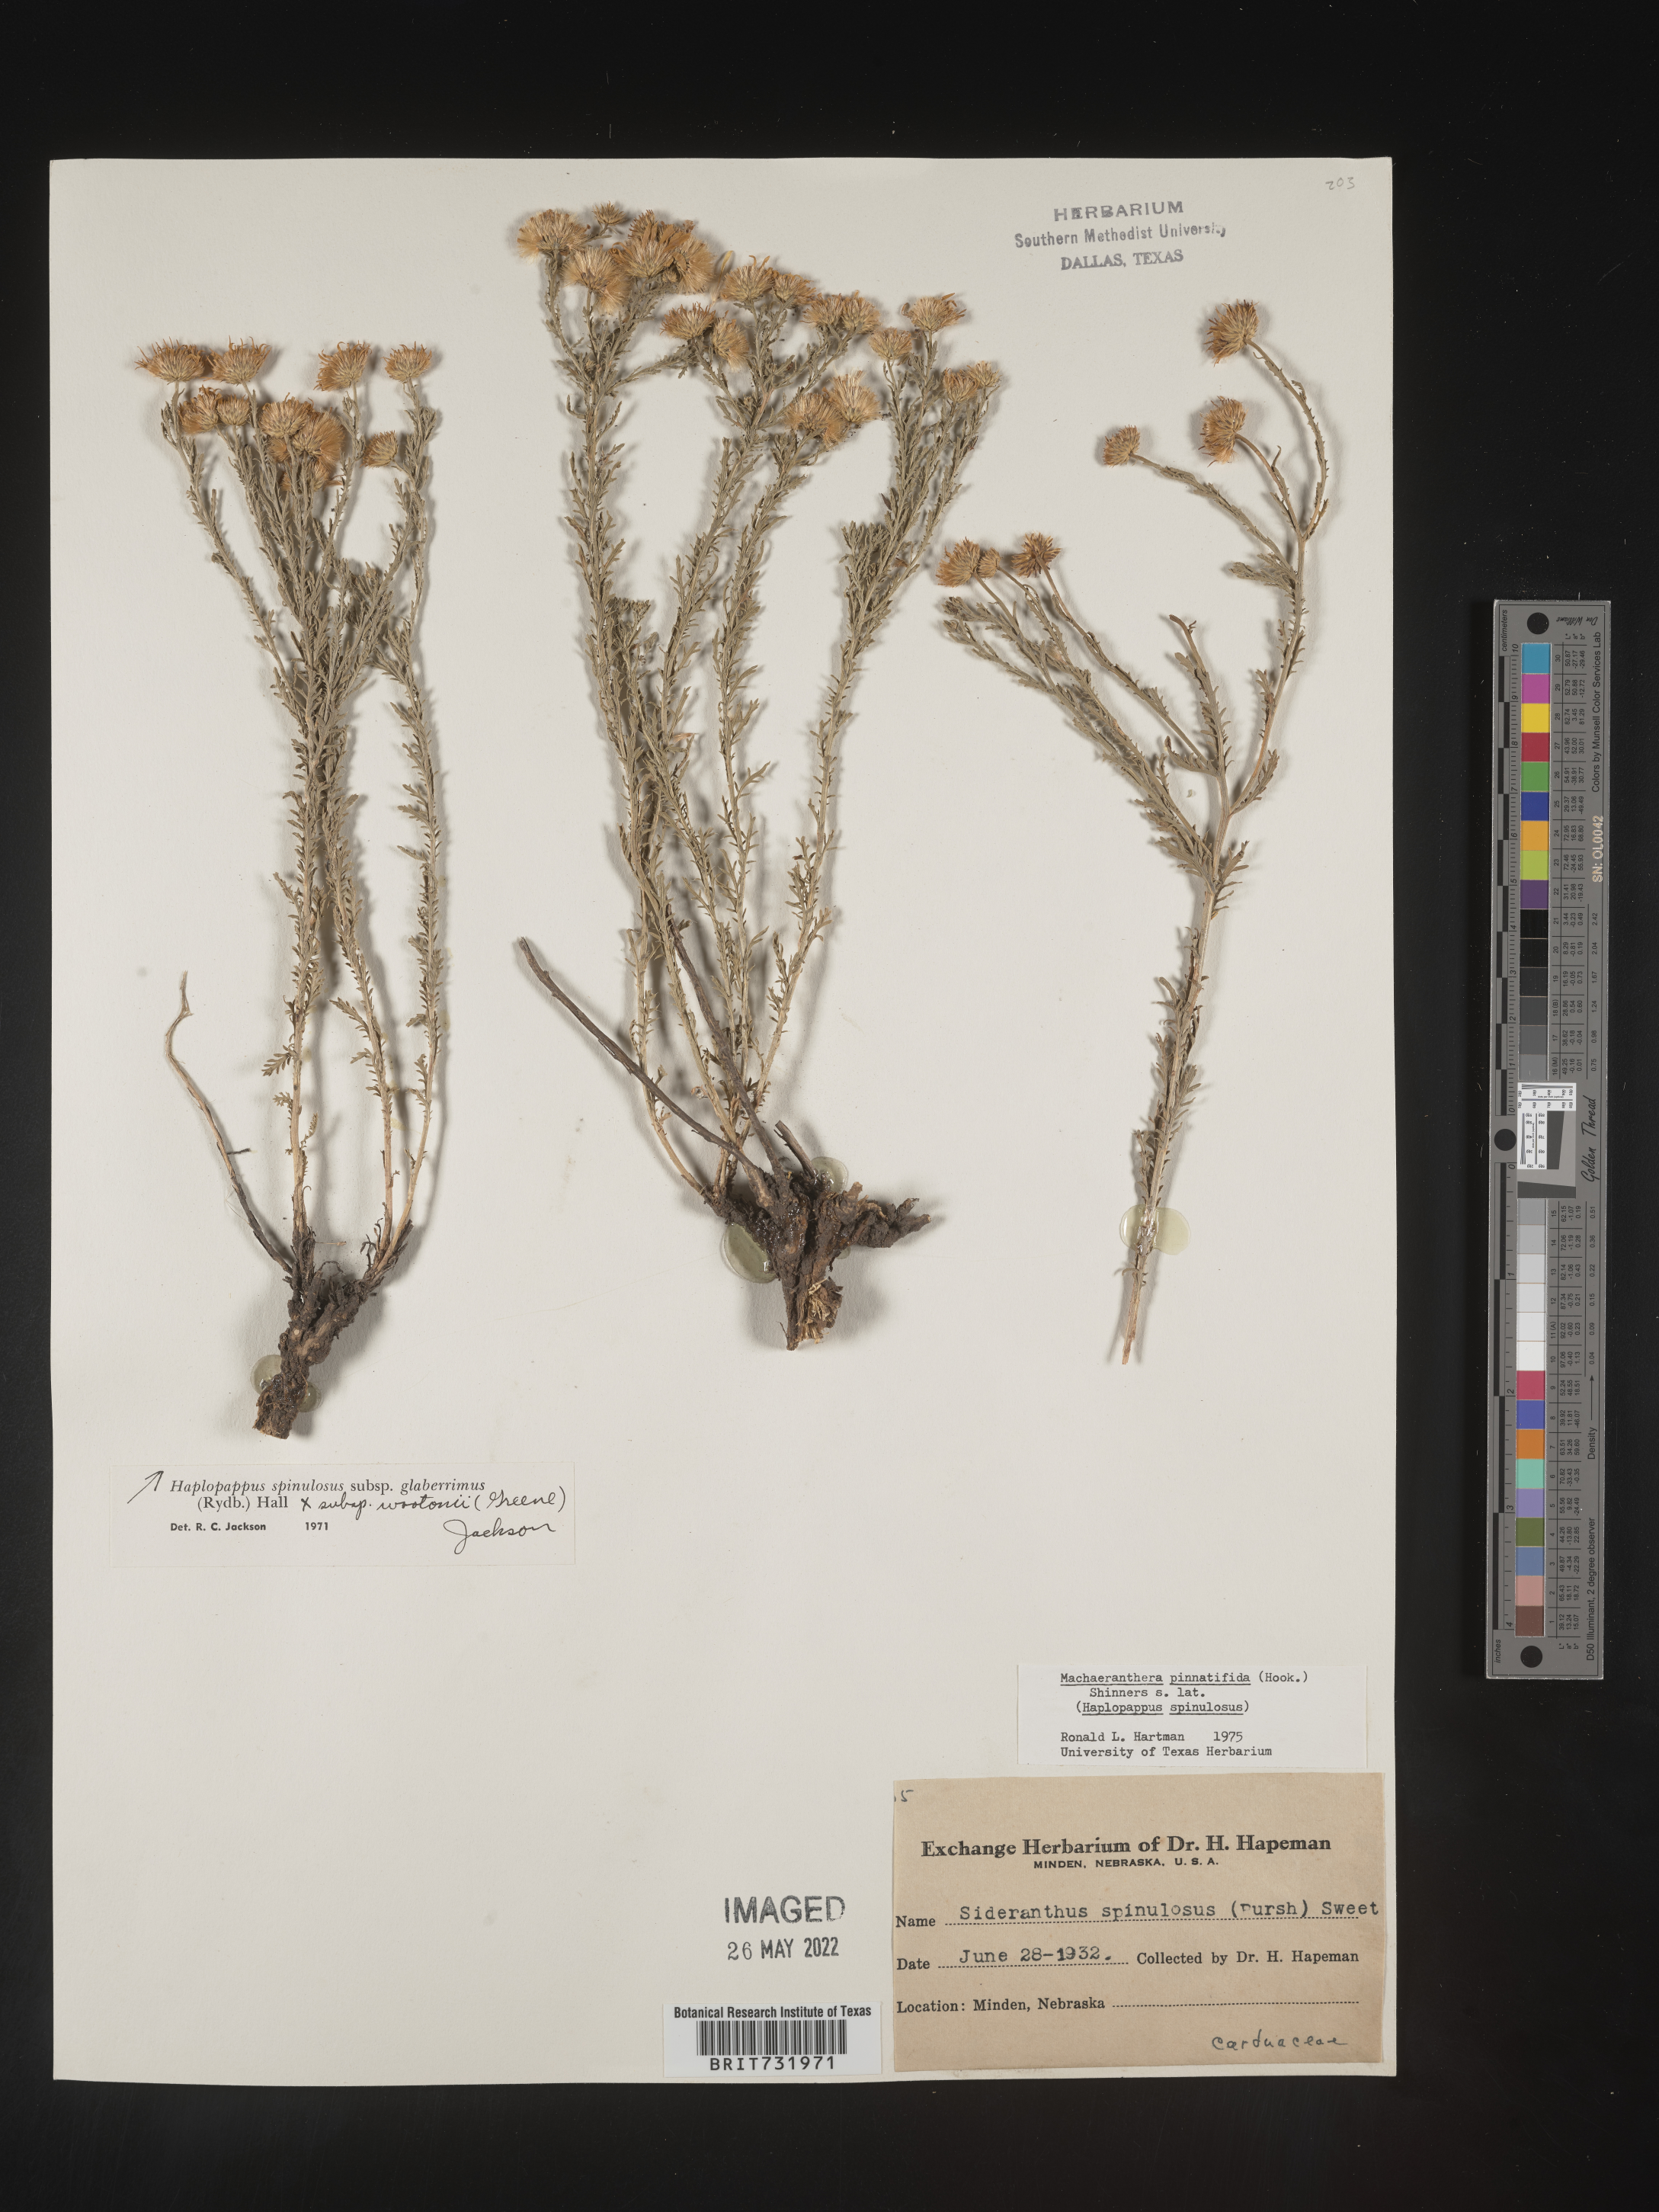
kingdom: Plantae
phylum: Tracheophyta
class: Magnoliopsida
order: Asterales
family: Asteraceae
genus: Xanthisma
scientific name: Xanthisma spinulosum
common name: Spiny goldenweed
